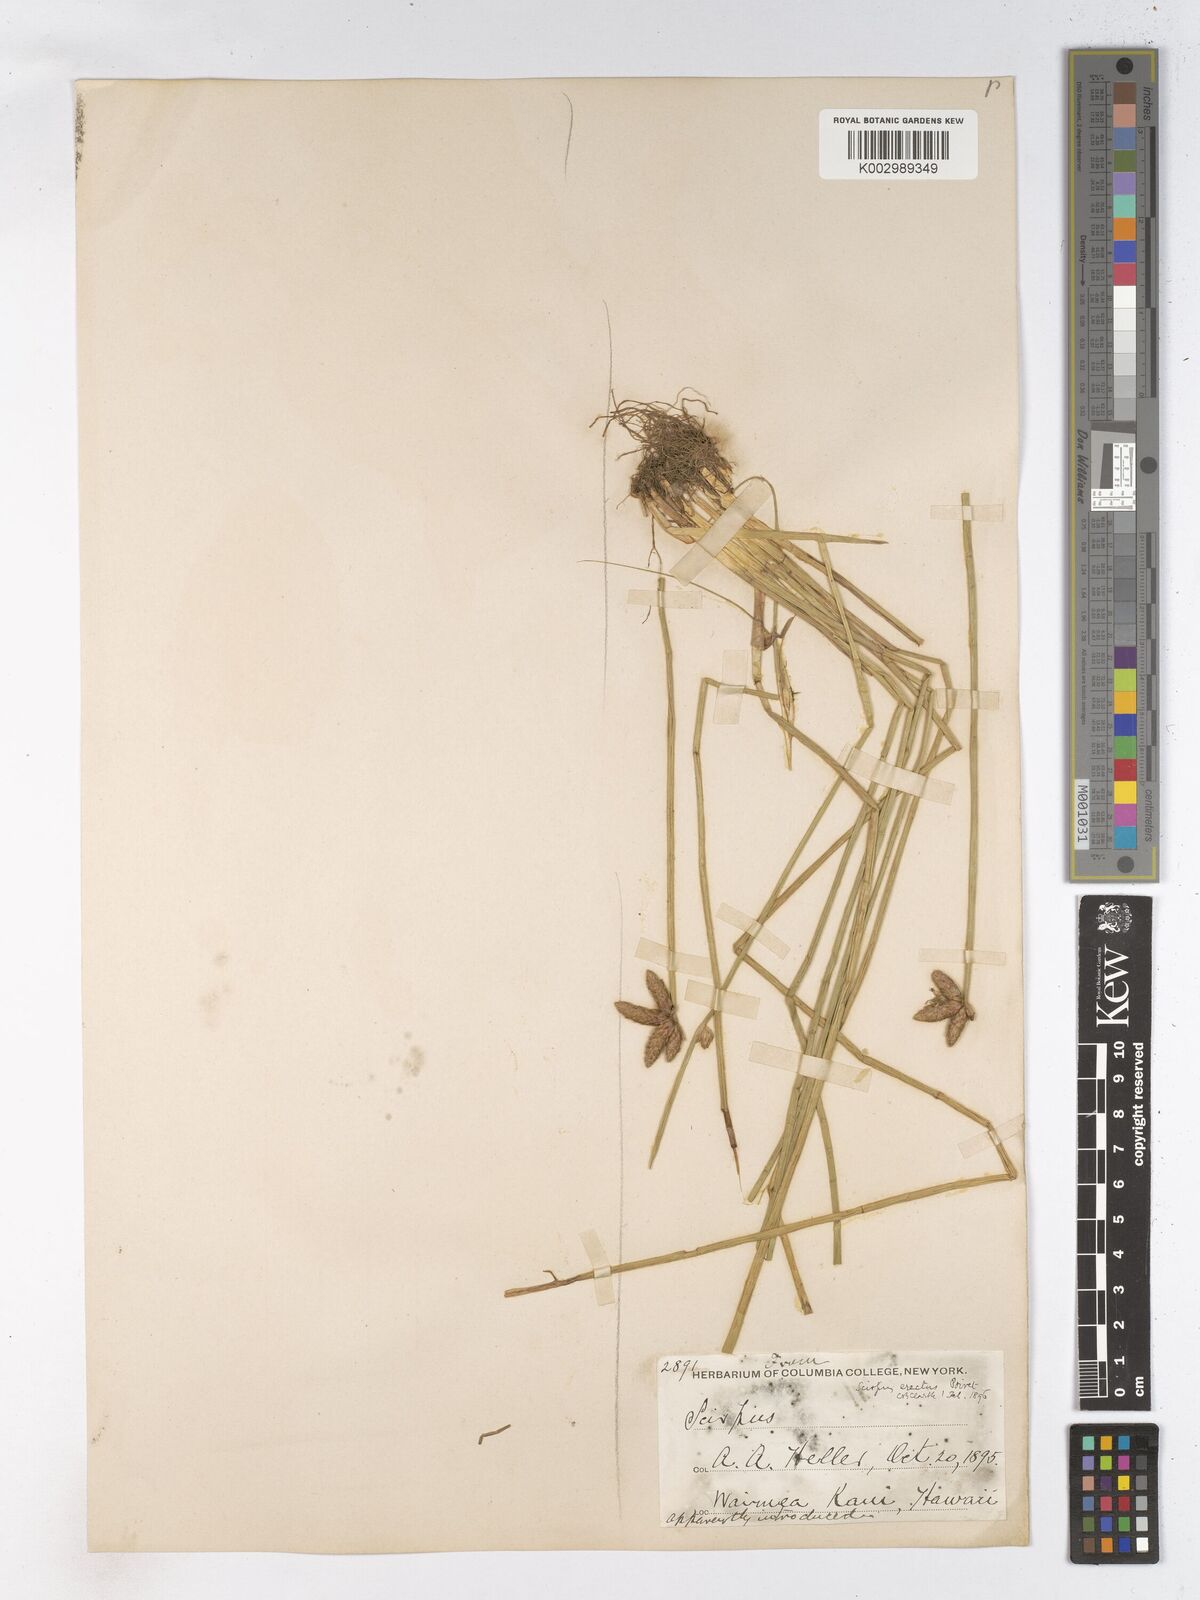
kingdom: Plantae
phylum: Tracheophyta
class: Liliopsida
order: Poales
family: Cyperaceae
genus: Schoenoplectiella
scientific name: Schoenoplectiella juncoides
